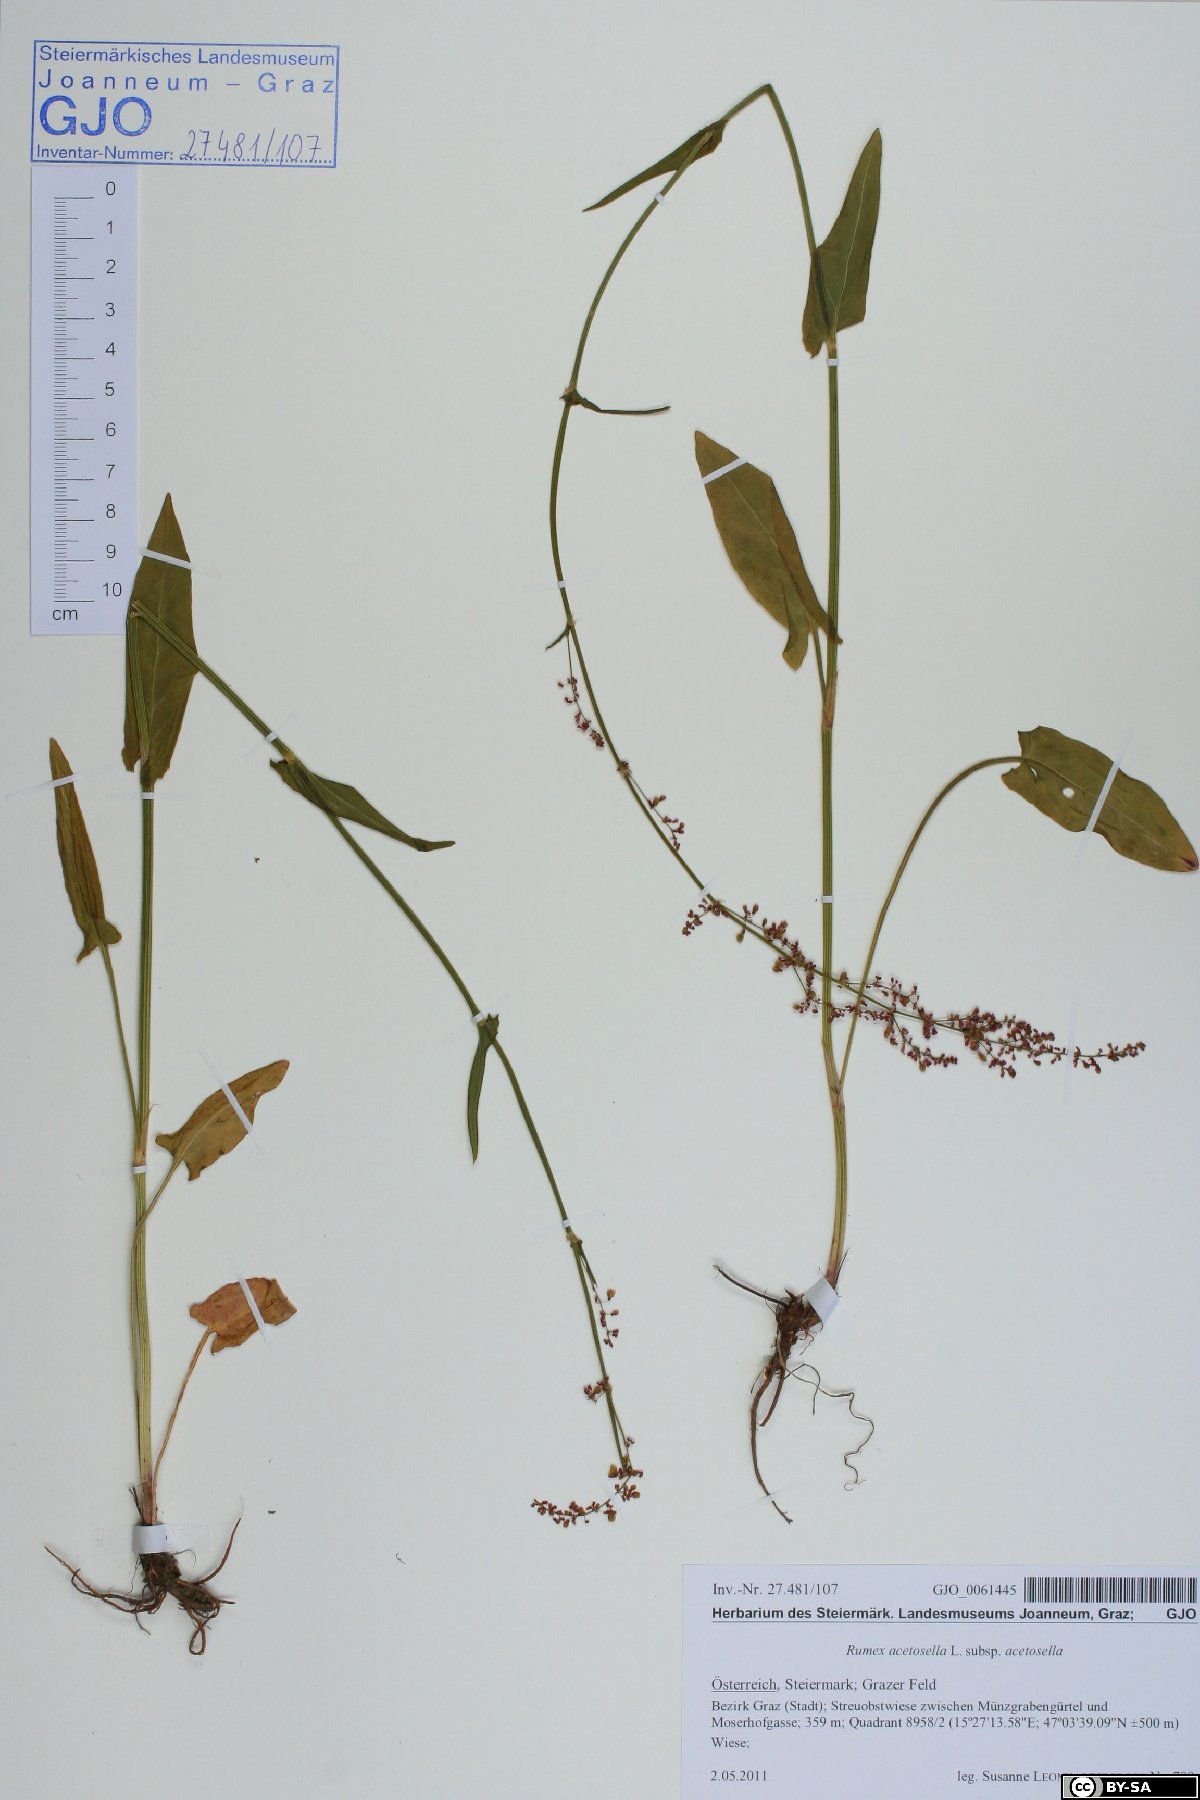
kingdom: Plantae
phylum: Tracheophyta
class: Magnoliopsida
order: Caryophyllales
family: Polygonaceae
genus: Rumex
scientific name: Rumex acetosella
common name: Common sheep sorrel
